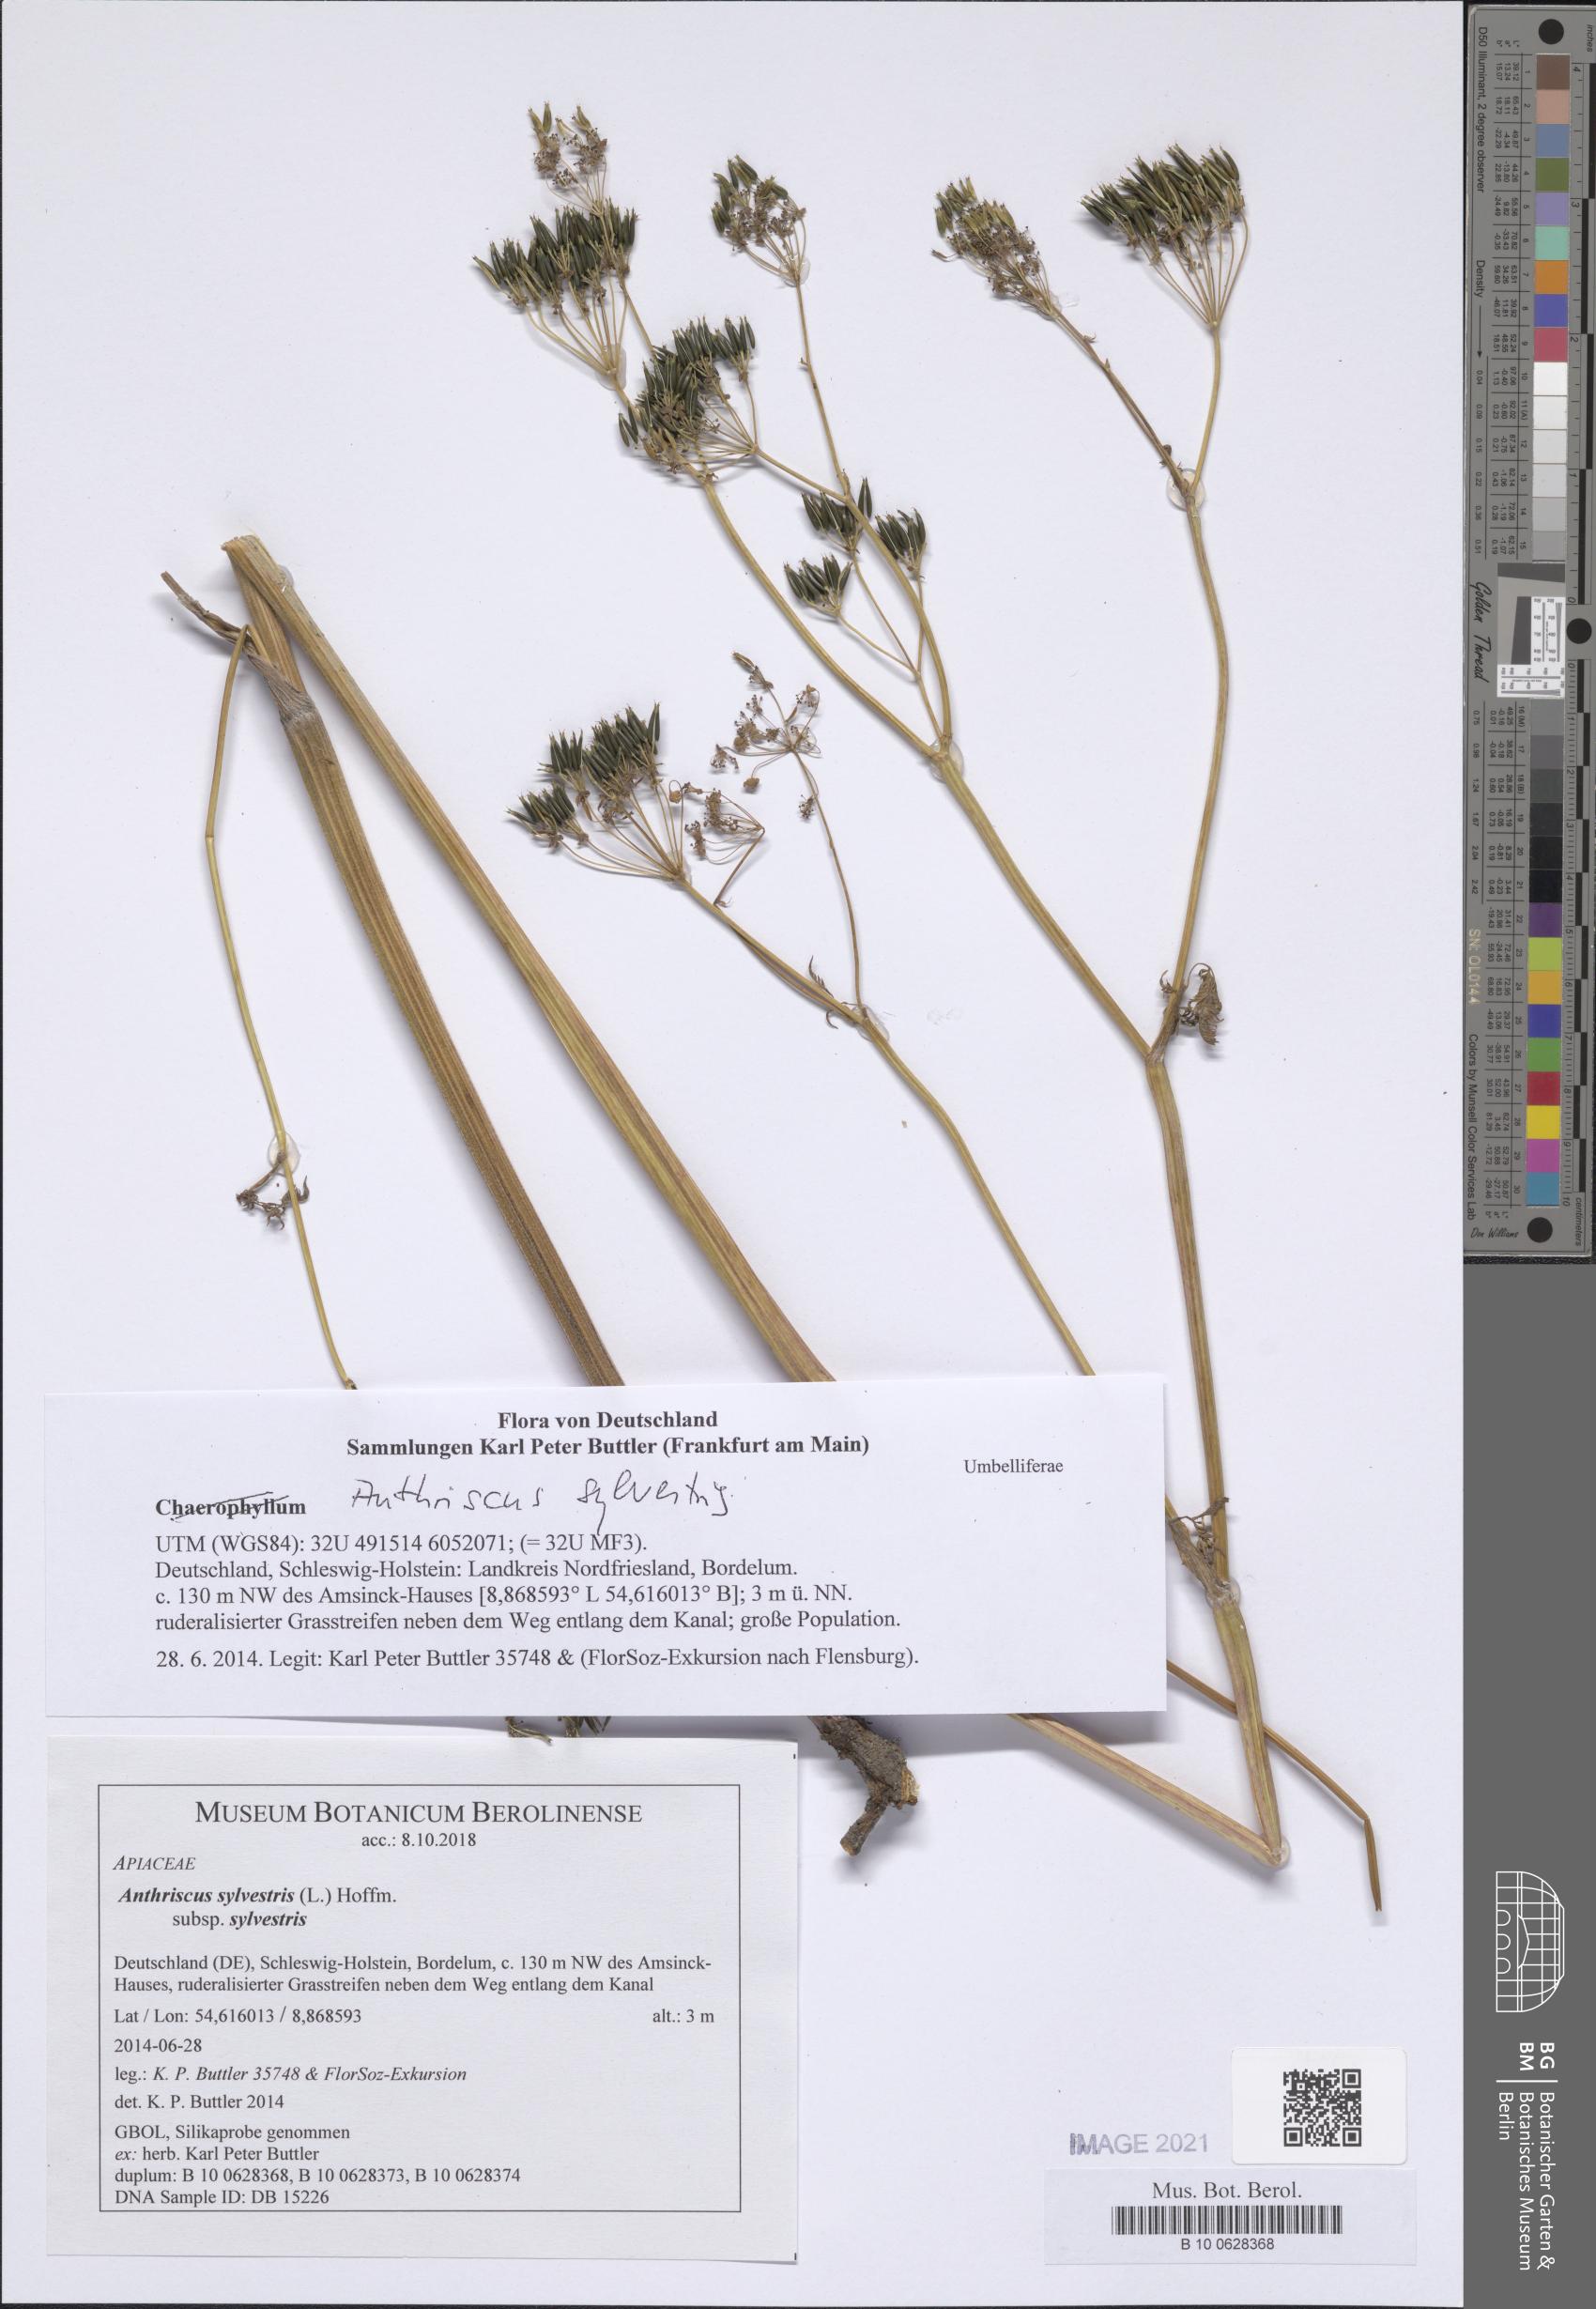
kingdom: Plantae
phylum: Tracheophyta
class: Magnoliopsida
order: Apiales
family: Apiaceae
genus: Anthriscus
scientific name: Anthriscus sylvestris
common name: Cow parsley
